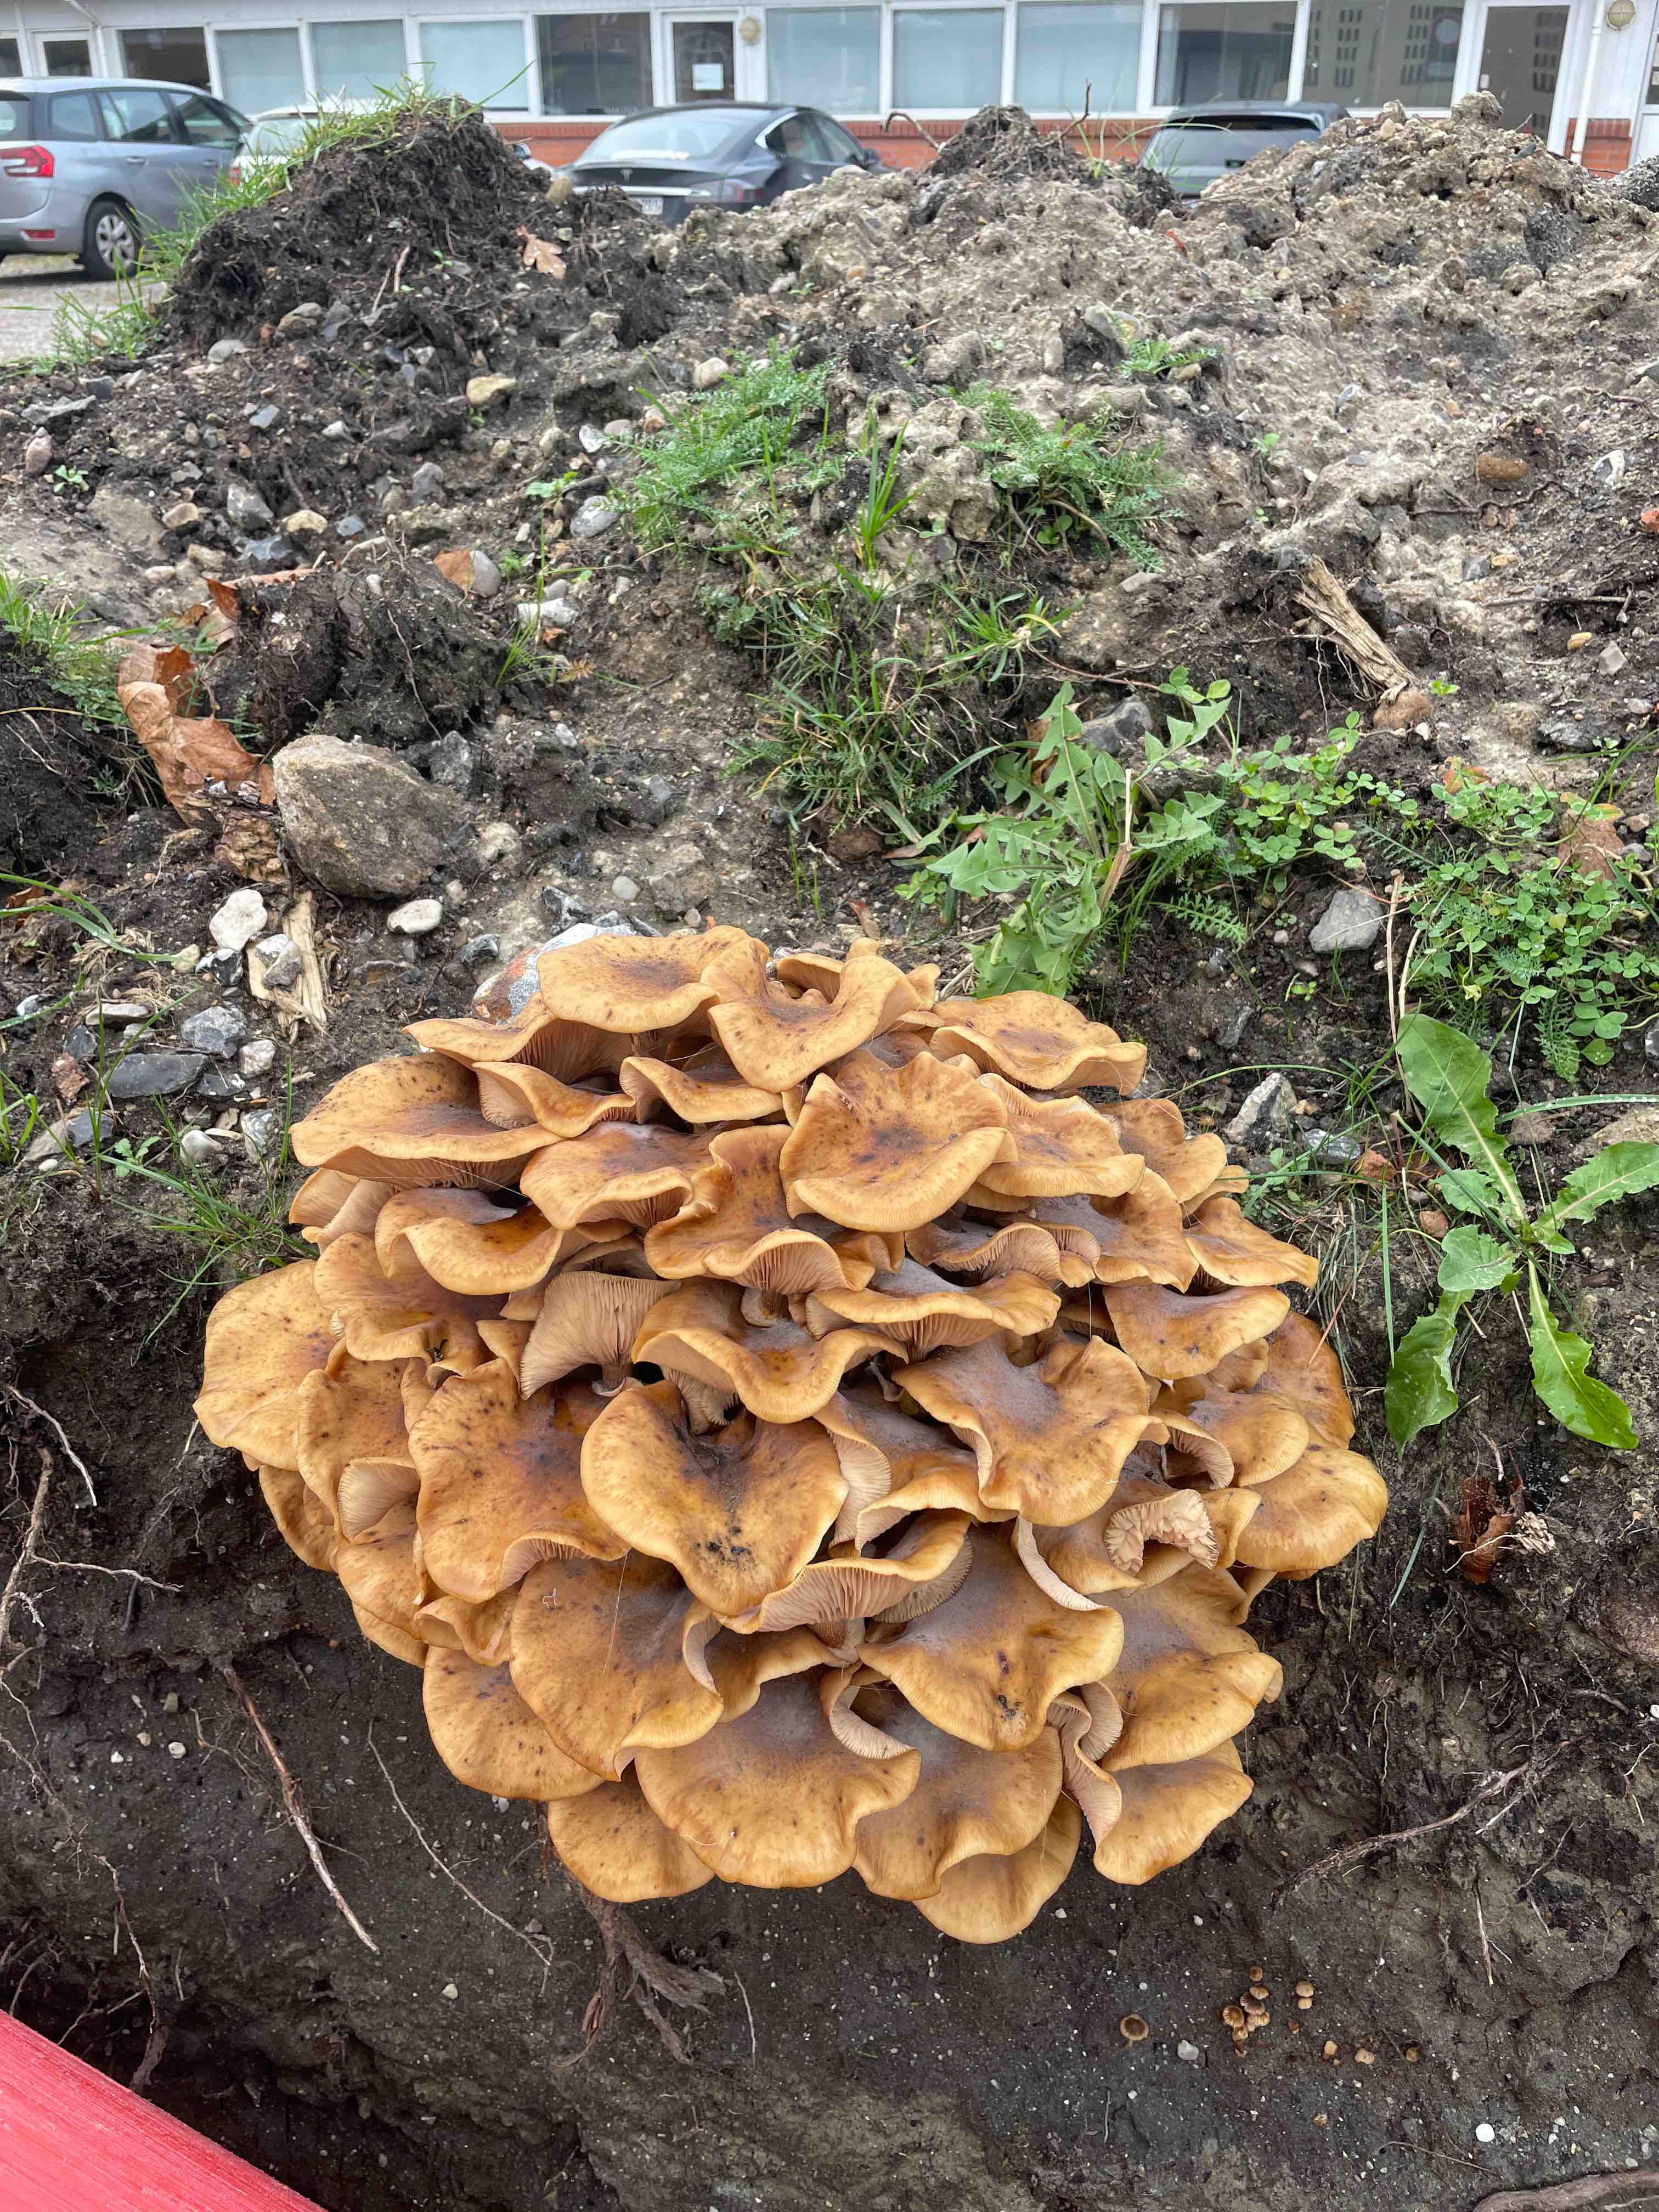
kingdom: Fungi
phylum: Basidiomycota
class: Agaricomycetes
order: Agaricales
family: Physalacriaceae
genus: Armillaria
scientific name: Armillaria mellea
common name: ægte honningsvamp
